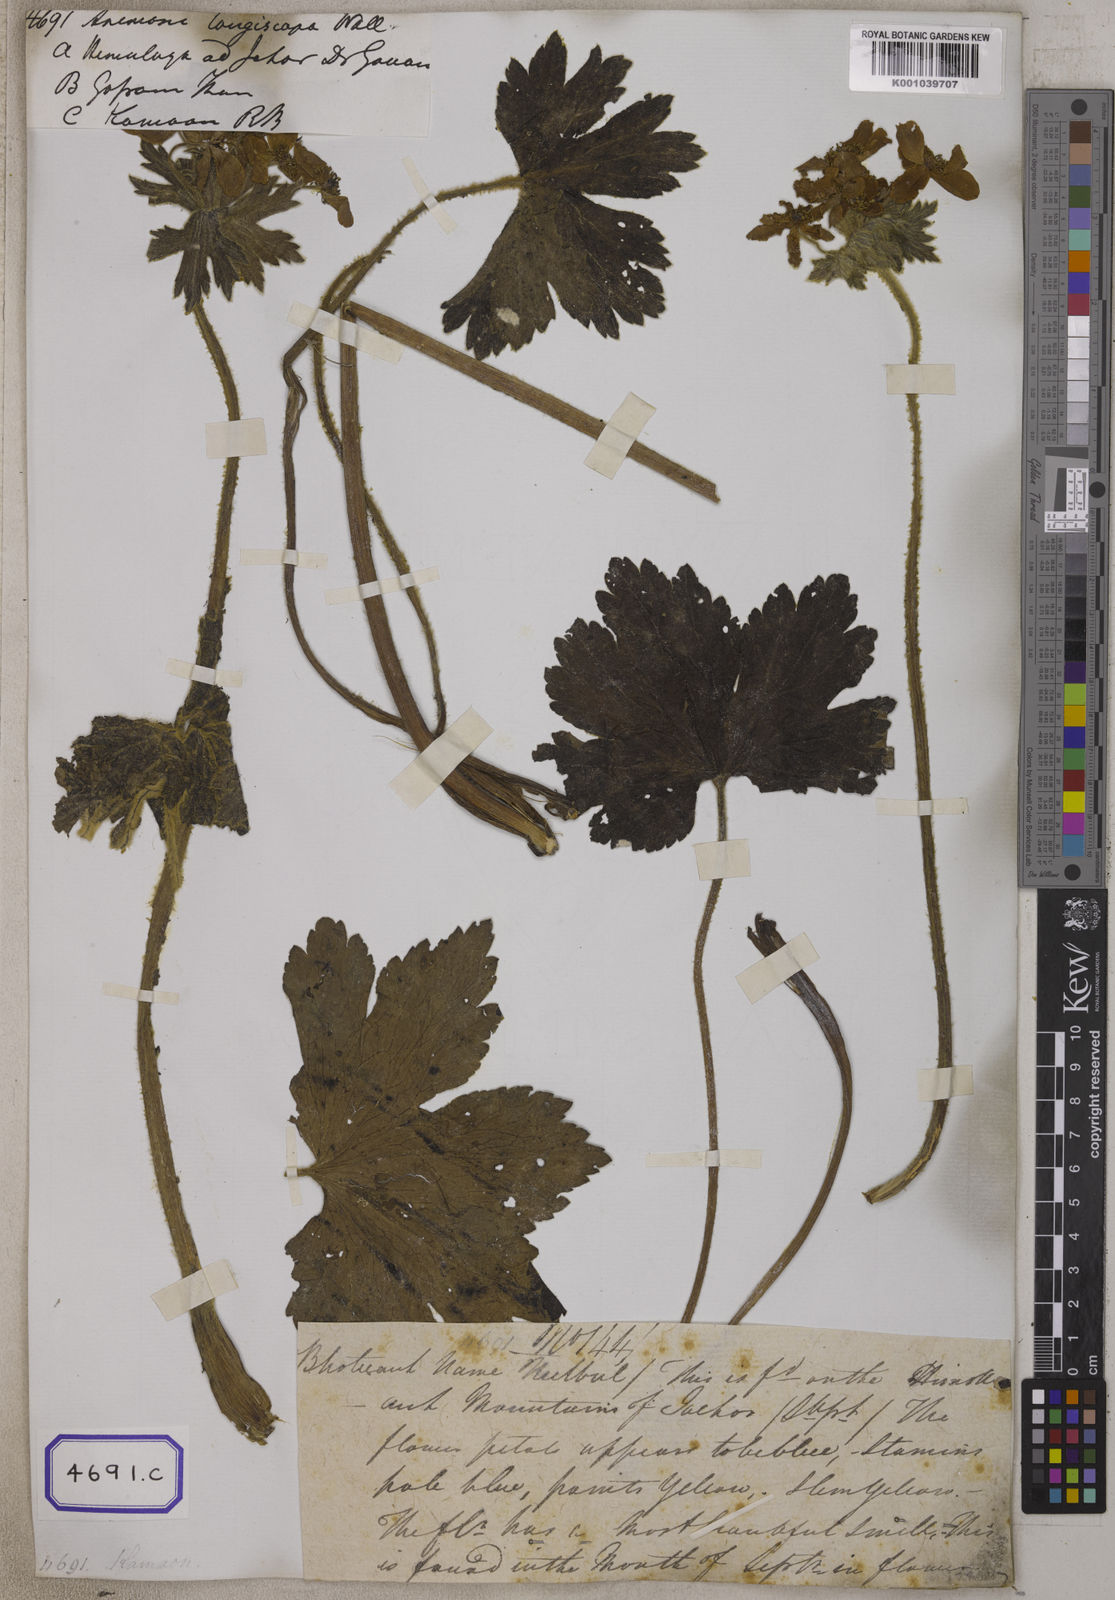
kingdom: Plantae
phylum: Tracheophyta
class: Magnoliopsida
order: Ranunculales
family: Ranunculaceae
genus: Anemonastrum
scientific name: Anemonastrum polyanthes
